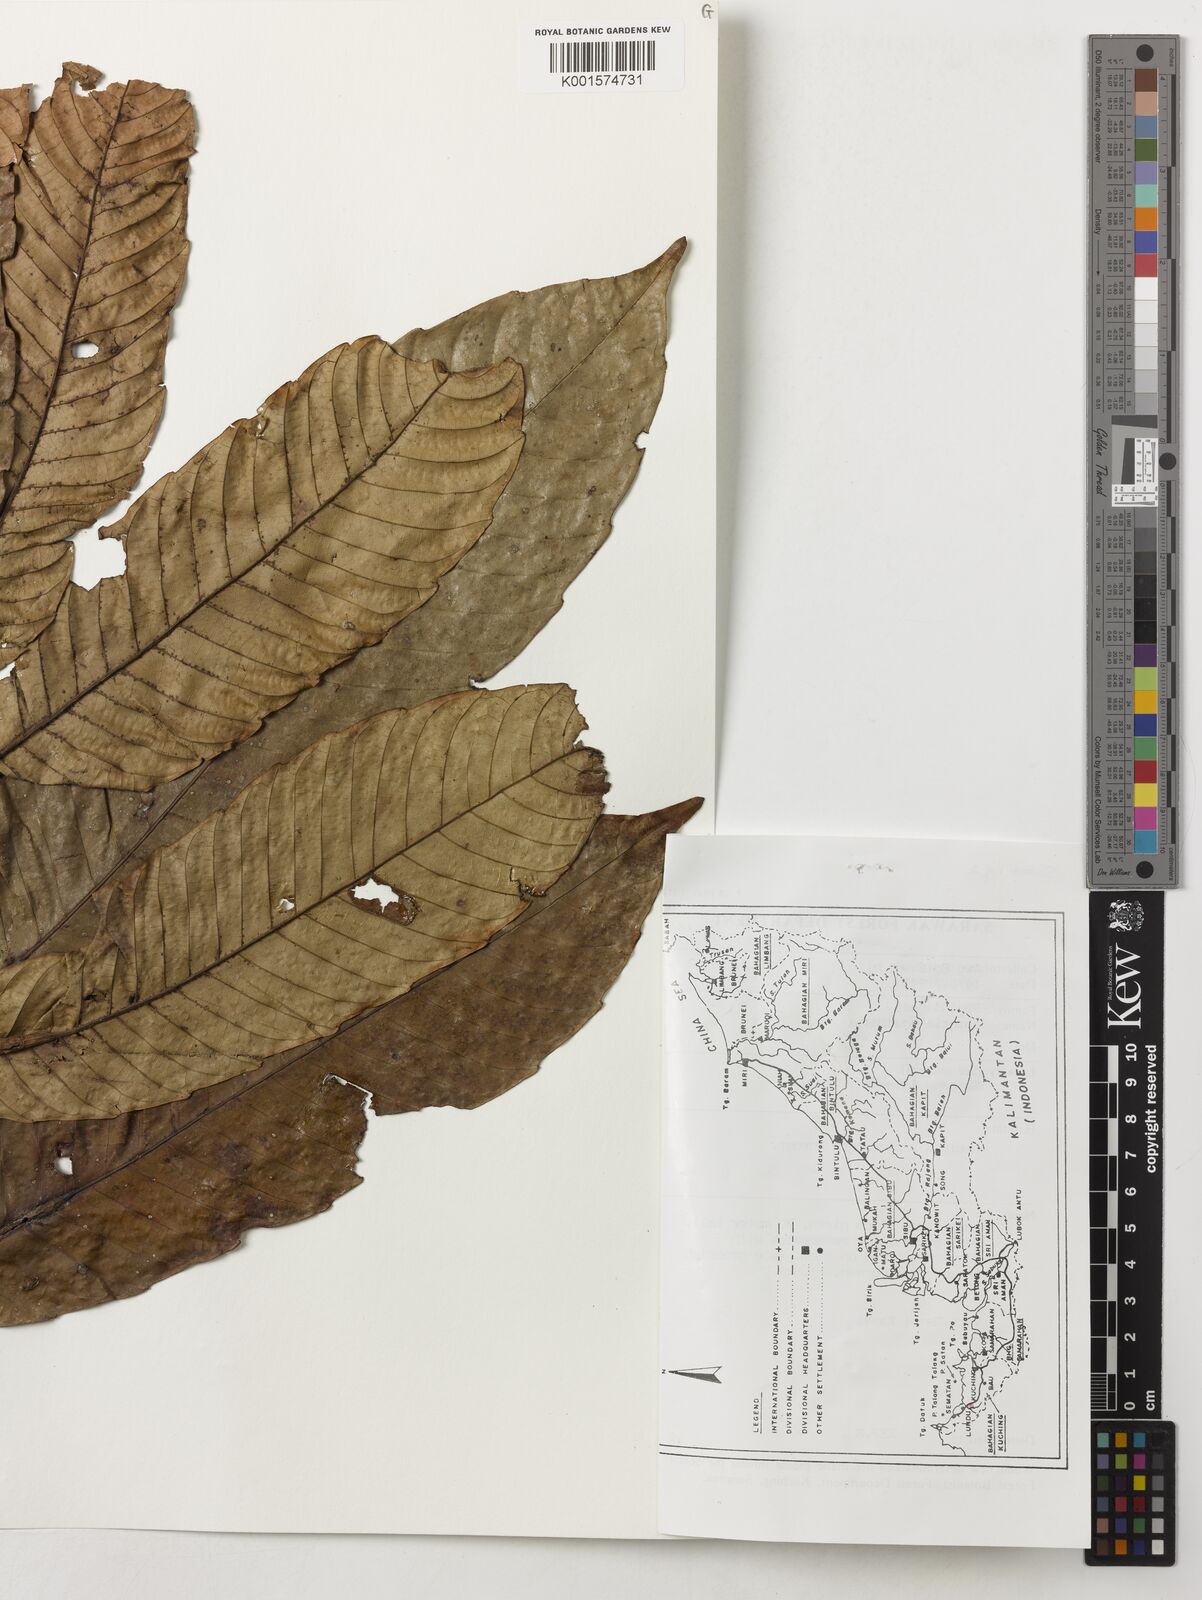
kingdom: Plantae
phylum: Tracheophyta
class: Magnoliopsida
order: Sapindales
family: Sapindaceae
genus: Pometia
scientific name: Pometia pinnata
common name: Oceanic lychee
